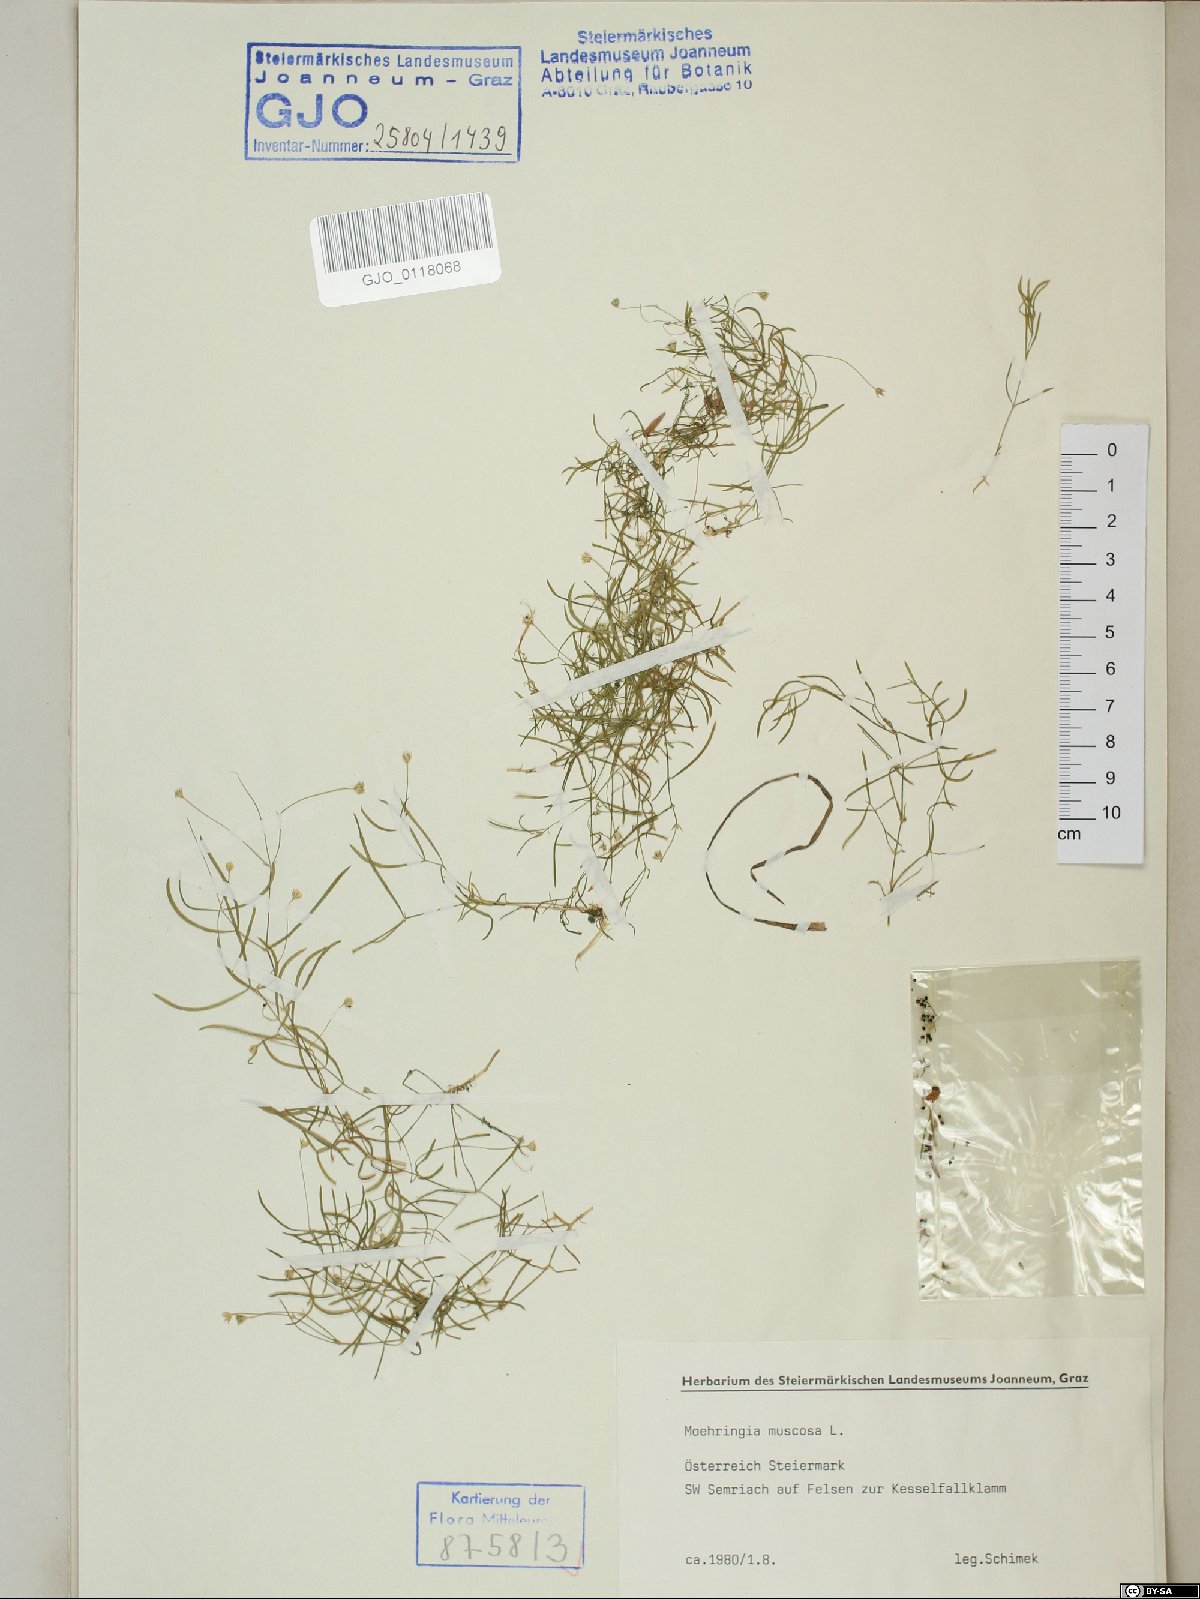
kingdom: Plantae
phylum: Tracheophyta
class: Magnoliopsida
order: Caryophyllales
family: Caryophyllaceae
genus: Moehringia
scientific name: Moehringia muscosa
